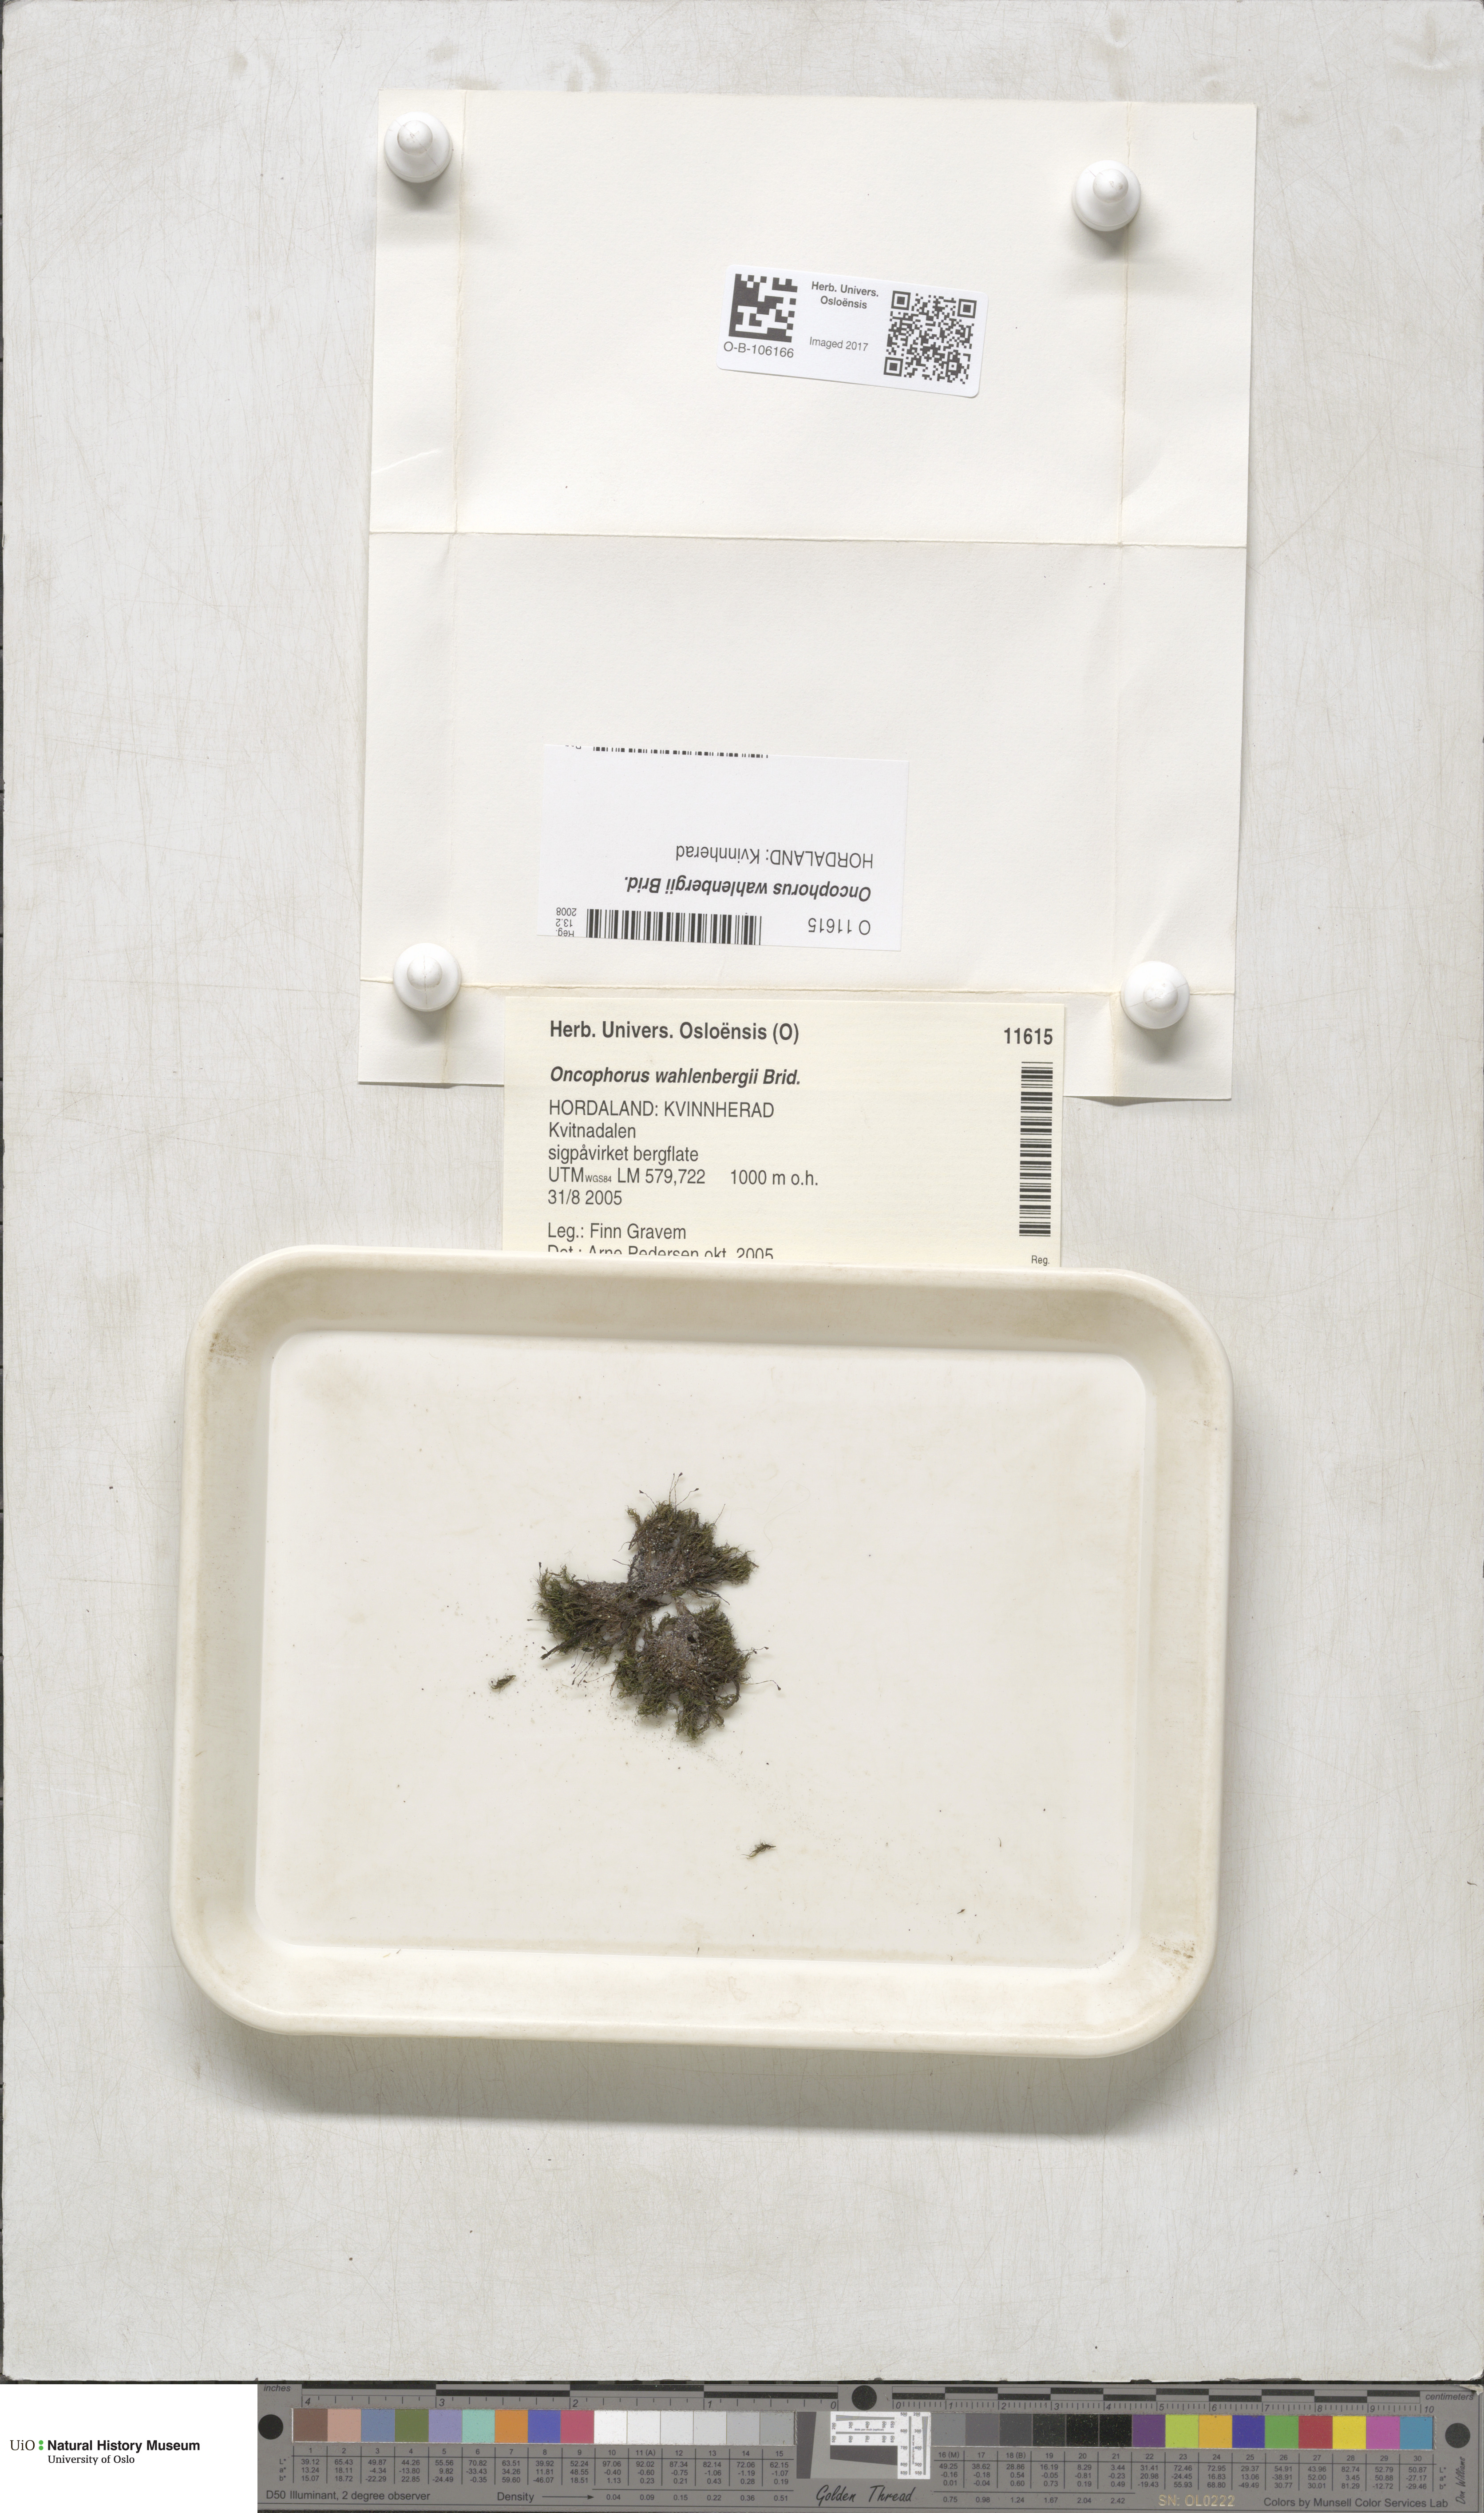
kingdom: Plantae
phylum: Bryophyta
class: Bryopsida
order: Dicranales
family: Rhabdoweisiaceae
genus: Brideliella
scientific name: Brideliella wahlenbergii
